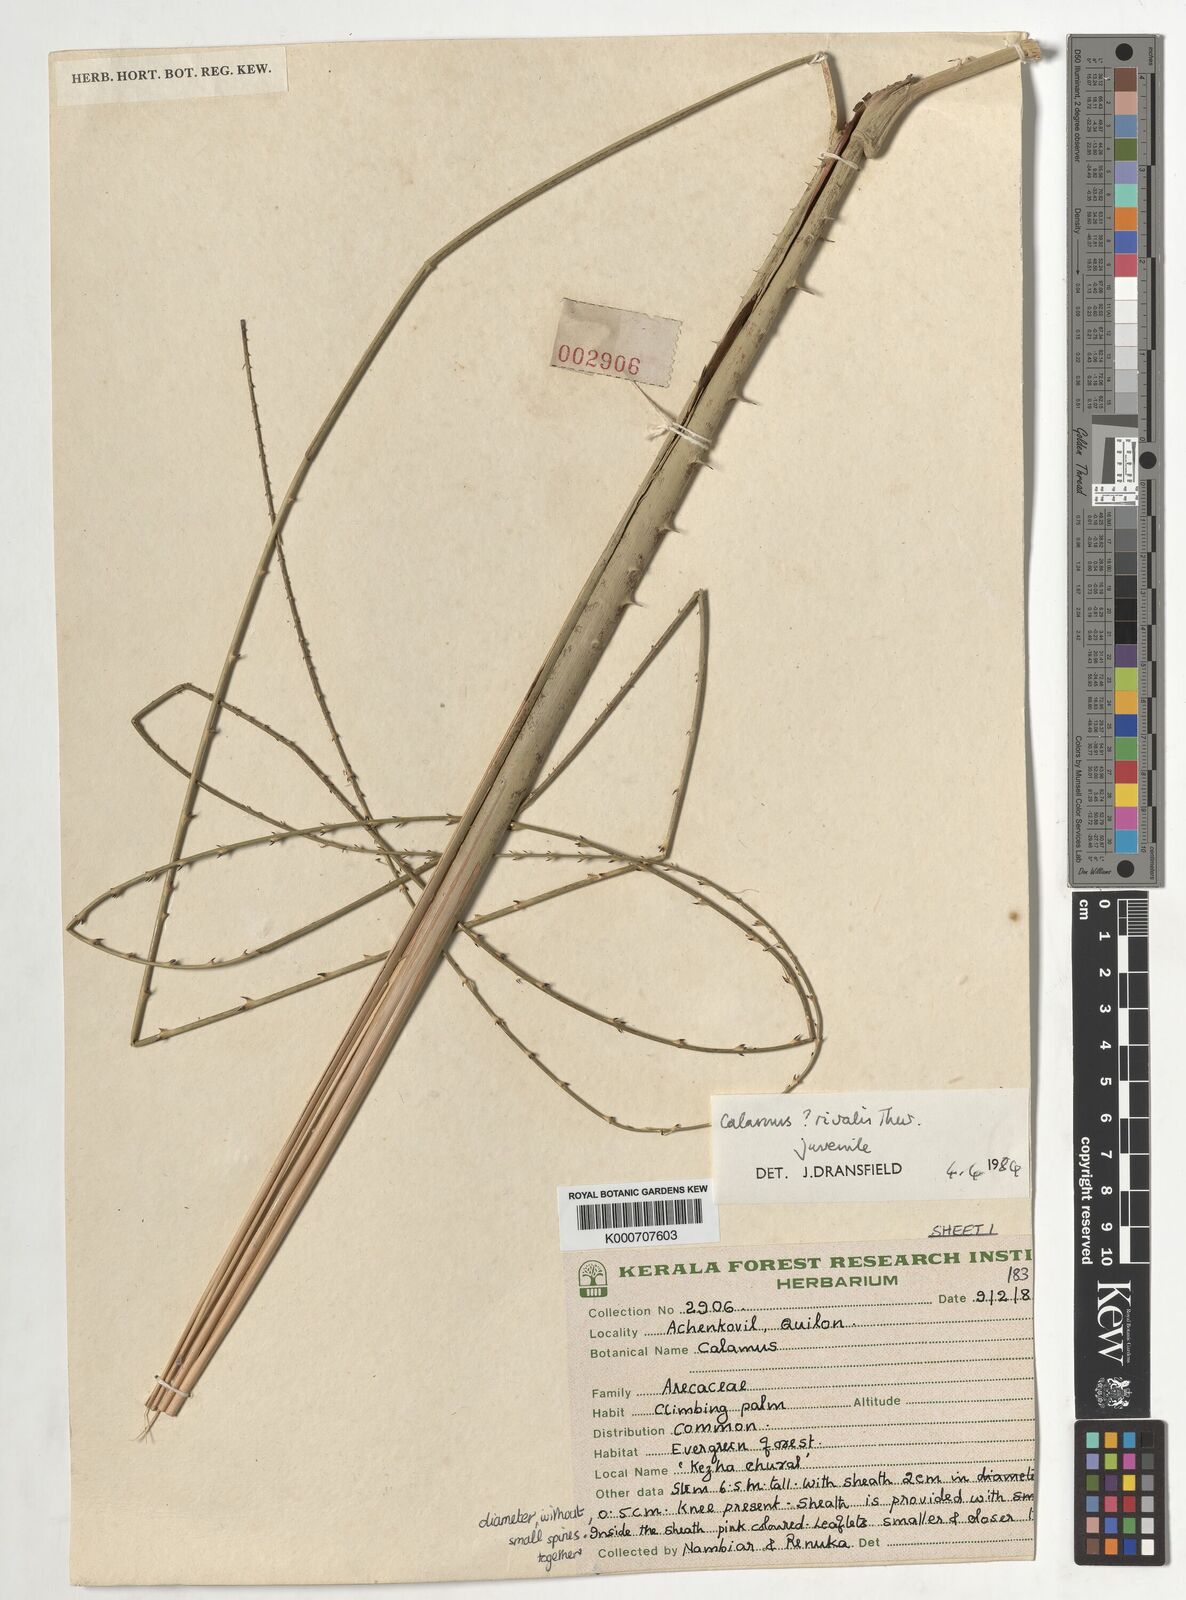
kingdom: Plantae
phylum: Tracheophyta
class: Liliopsida
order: Arecales
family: Arecaceae
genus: Calamus
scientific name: Calamus metzianus
